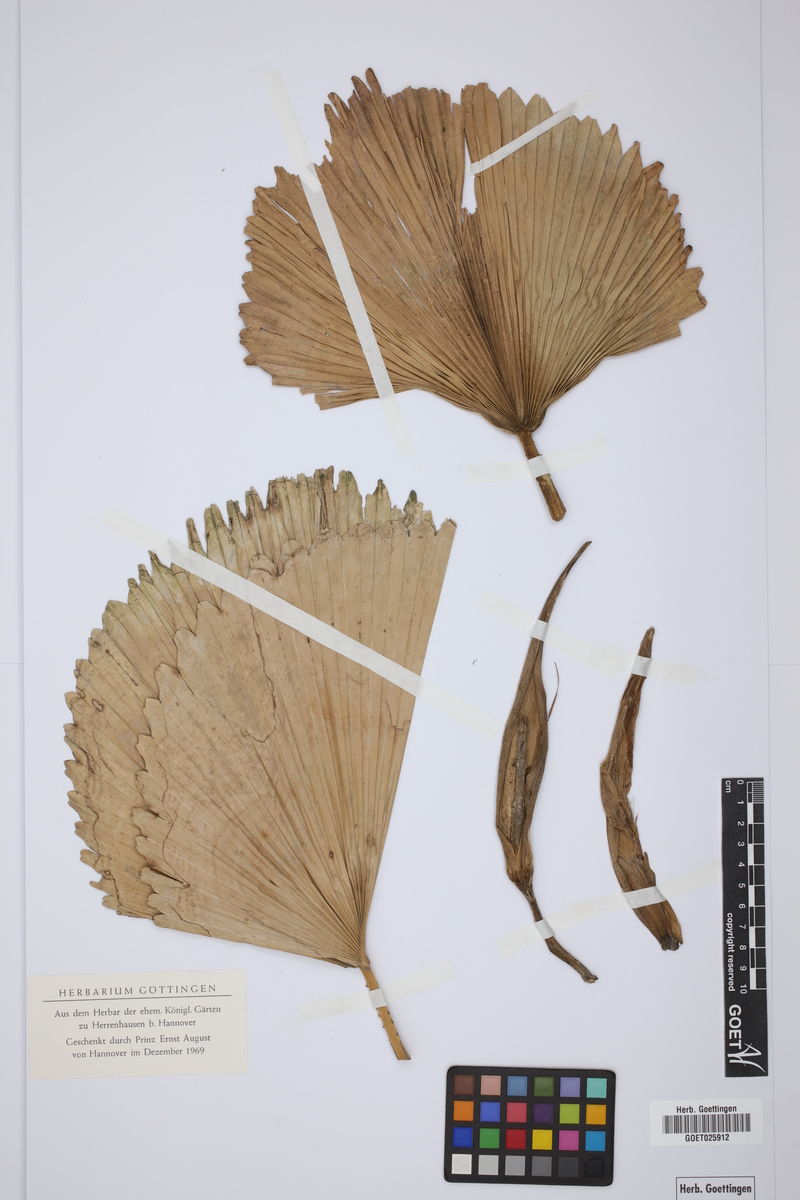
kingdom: Plantae
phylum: Tracheophyta
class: Liliopsida
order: Arecales
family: Arecaceae
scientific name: Arecaceae
